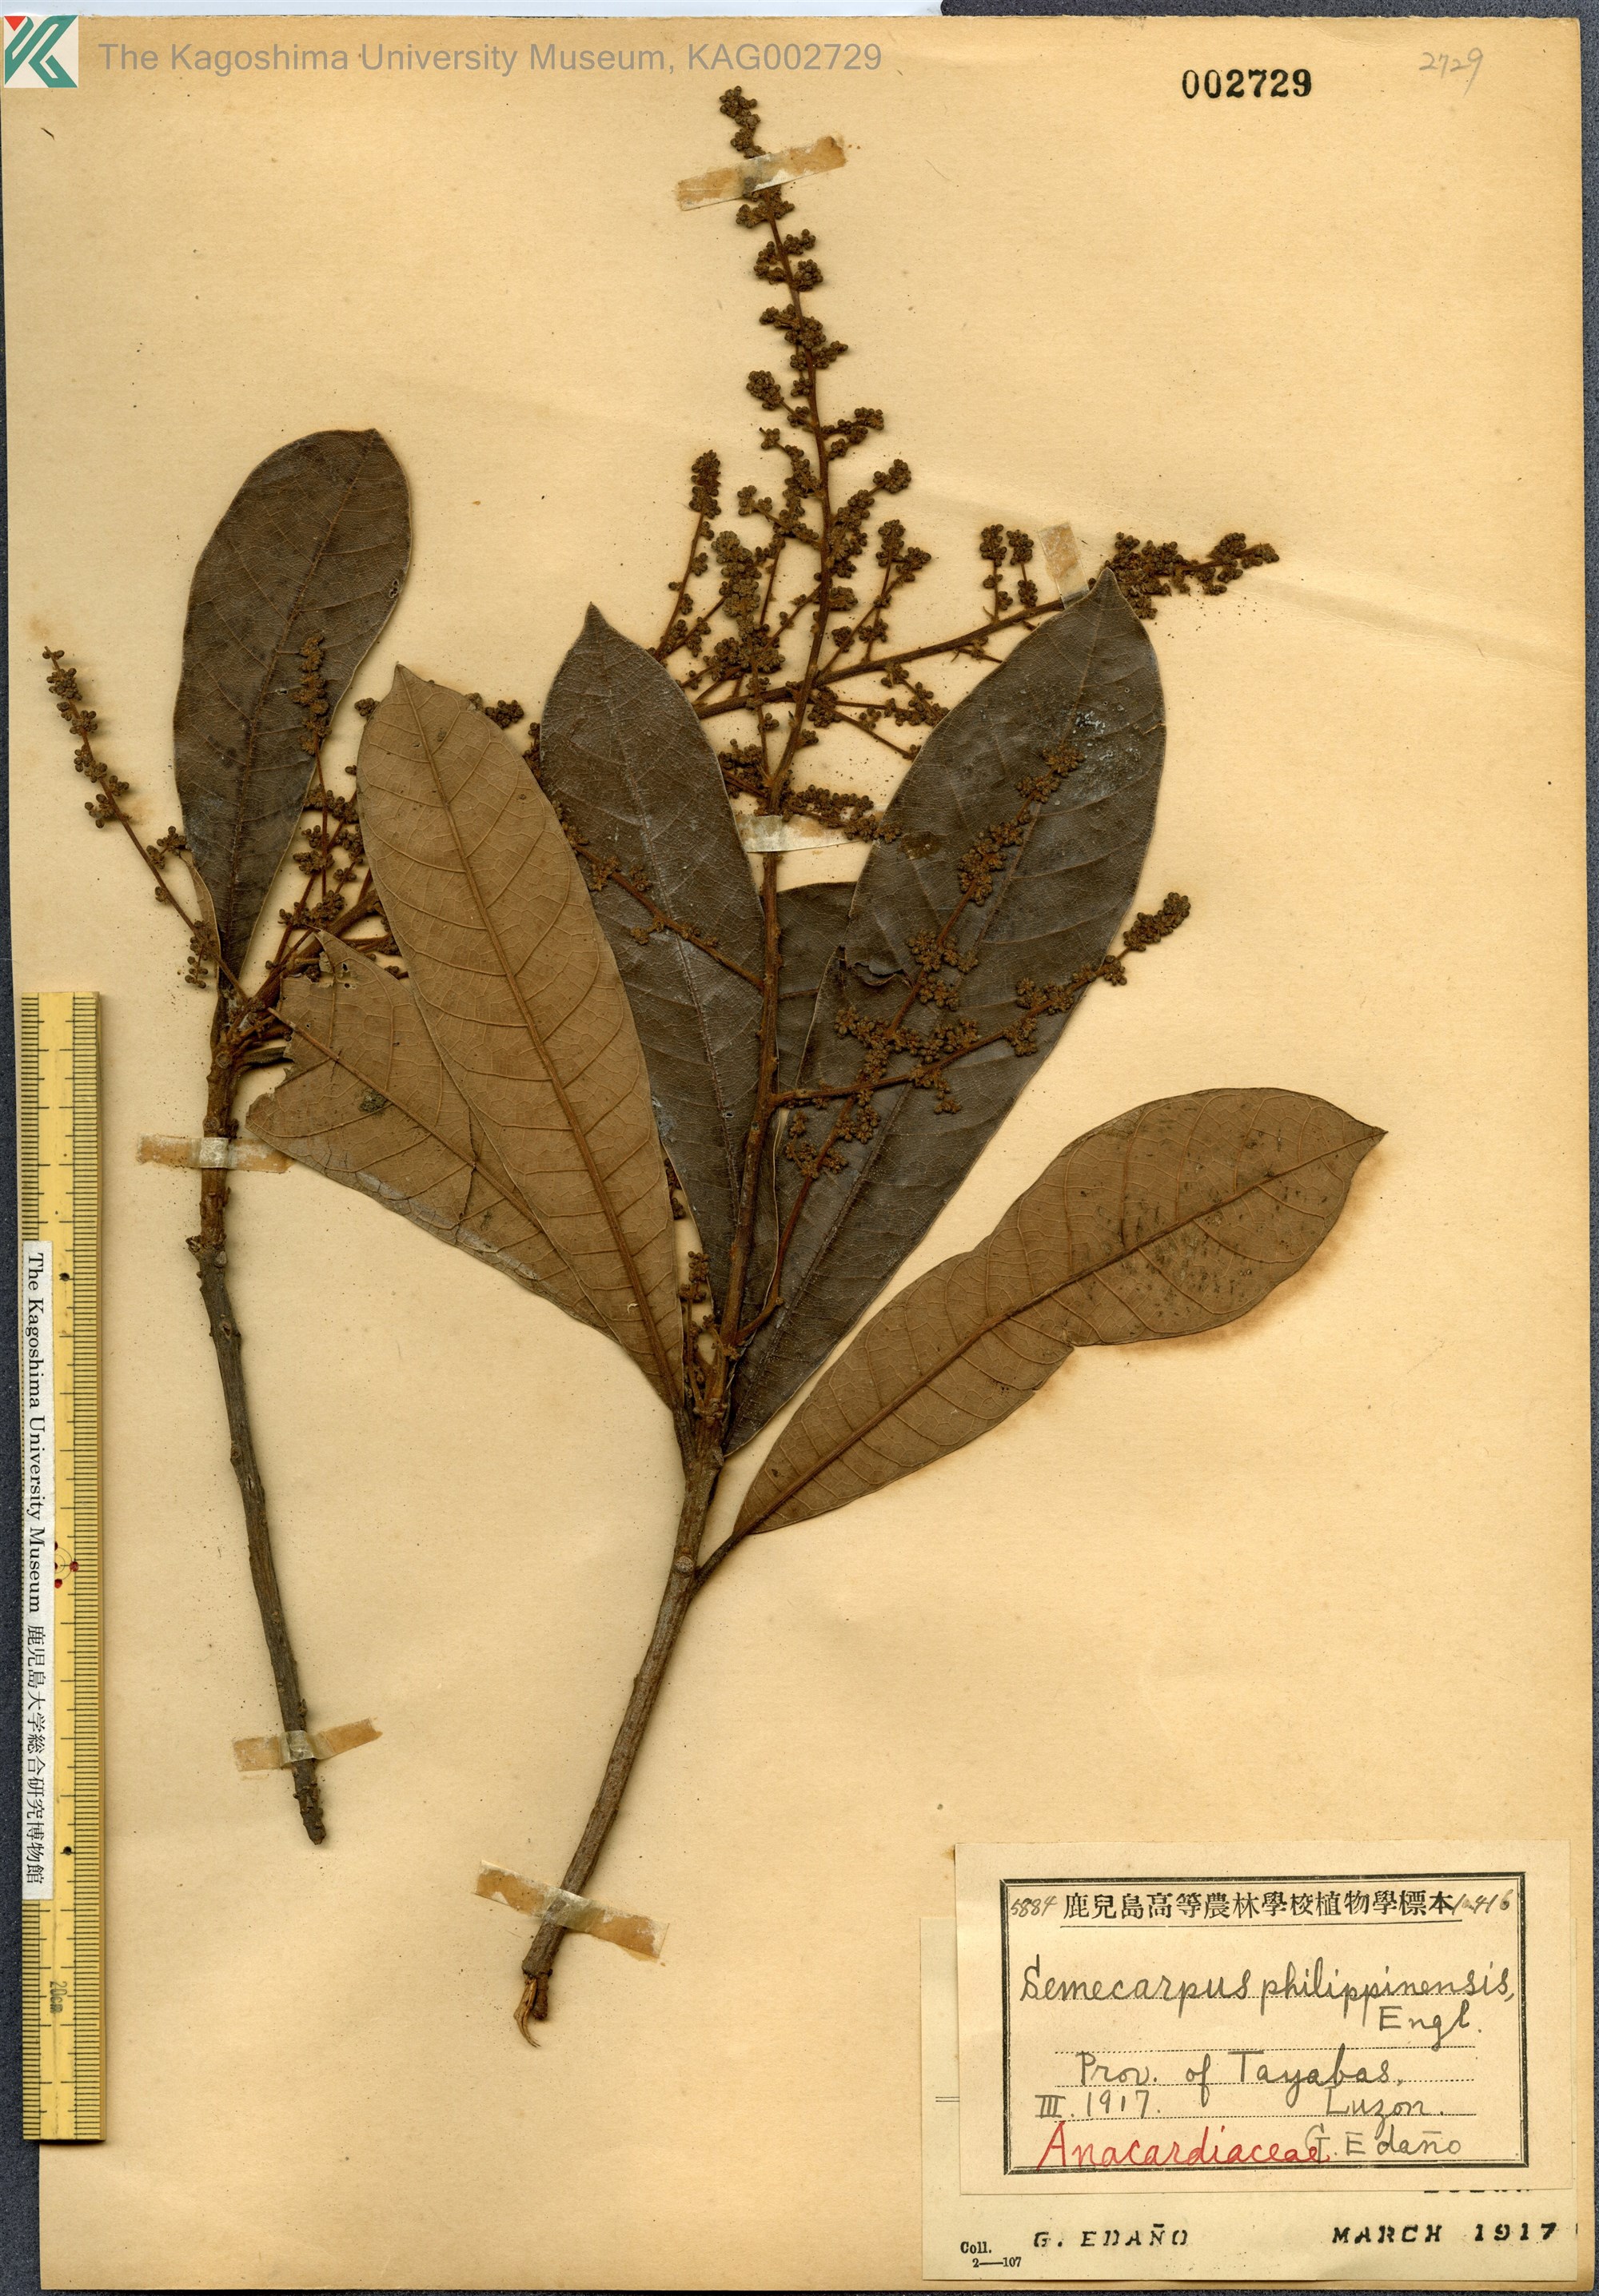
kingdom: Plantae
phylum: Tracheophyta
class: Magnoliopsida
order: Sapindales
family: Anacardiaceae
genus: Semecarpus
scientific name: Semecarpus cuneiformis
